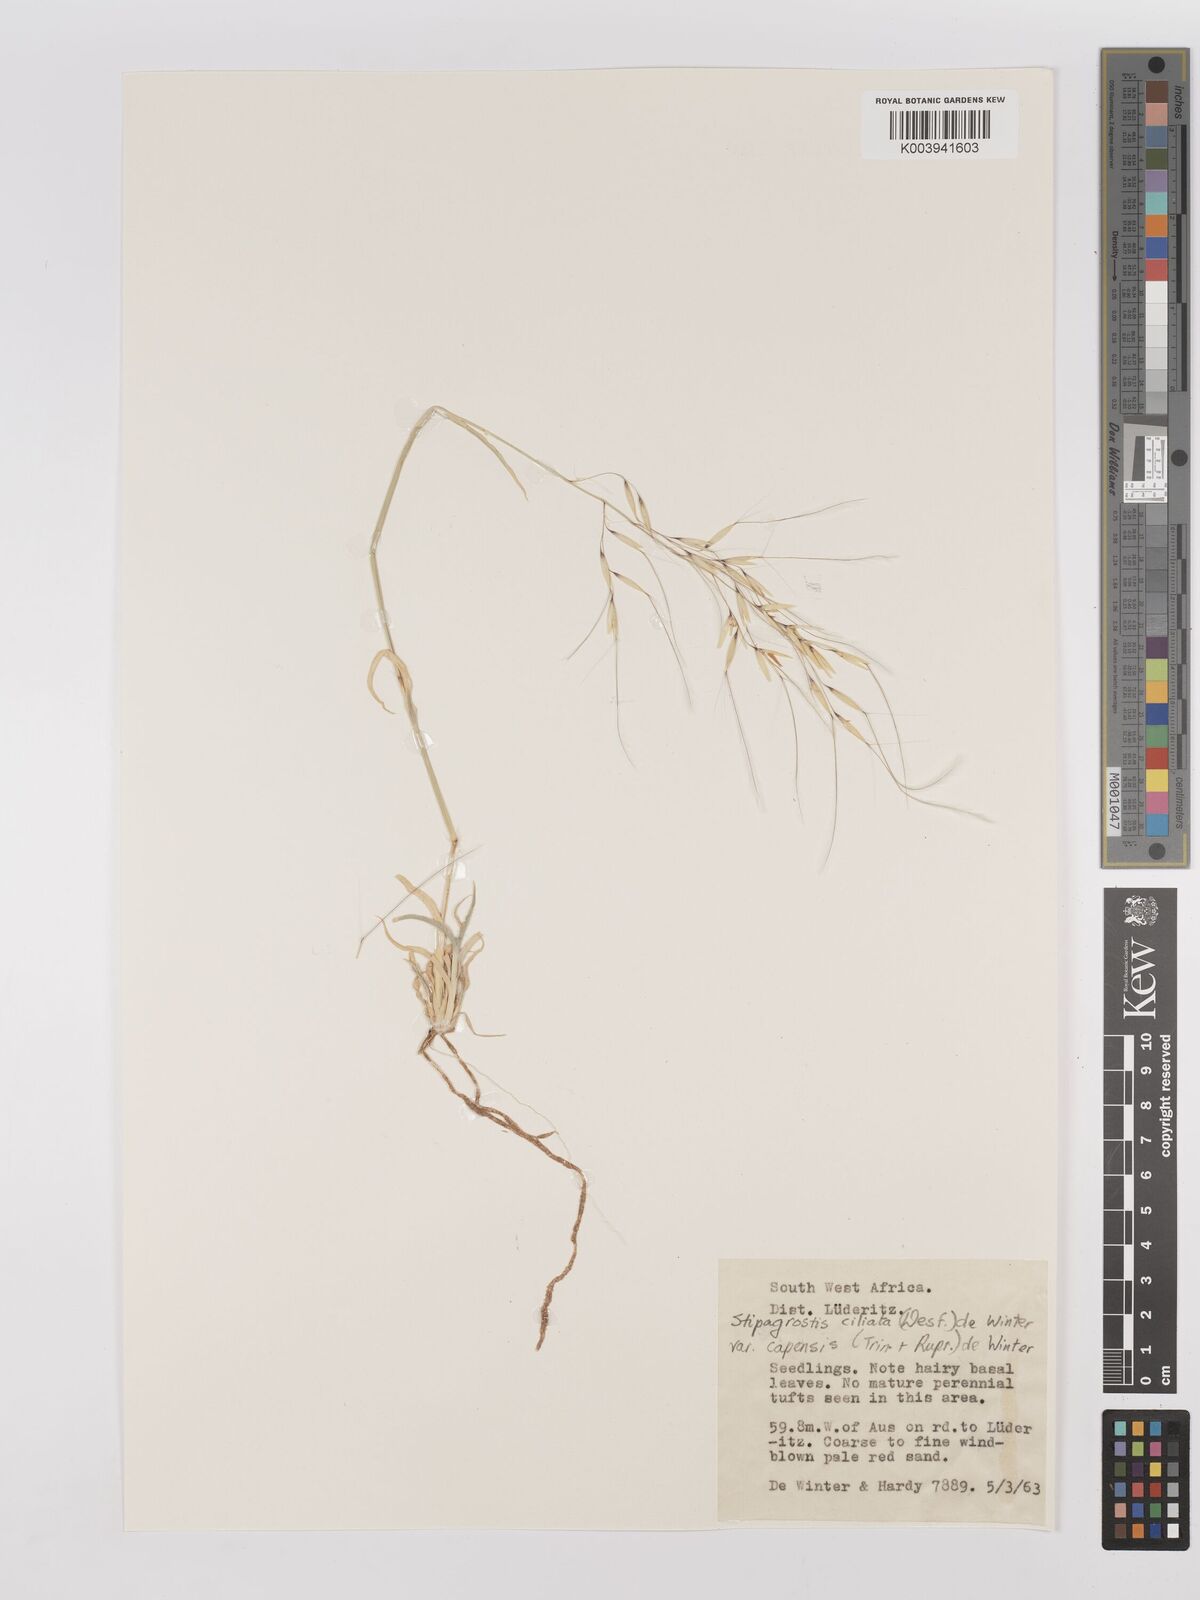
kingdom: Plantae
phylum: Tracheophyta
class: Liliopsida
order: Poales
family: Poaceae
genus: Stipagrostis
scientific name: Stipagrostis ciliata
